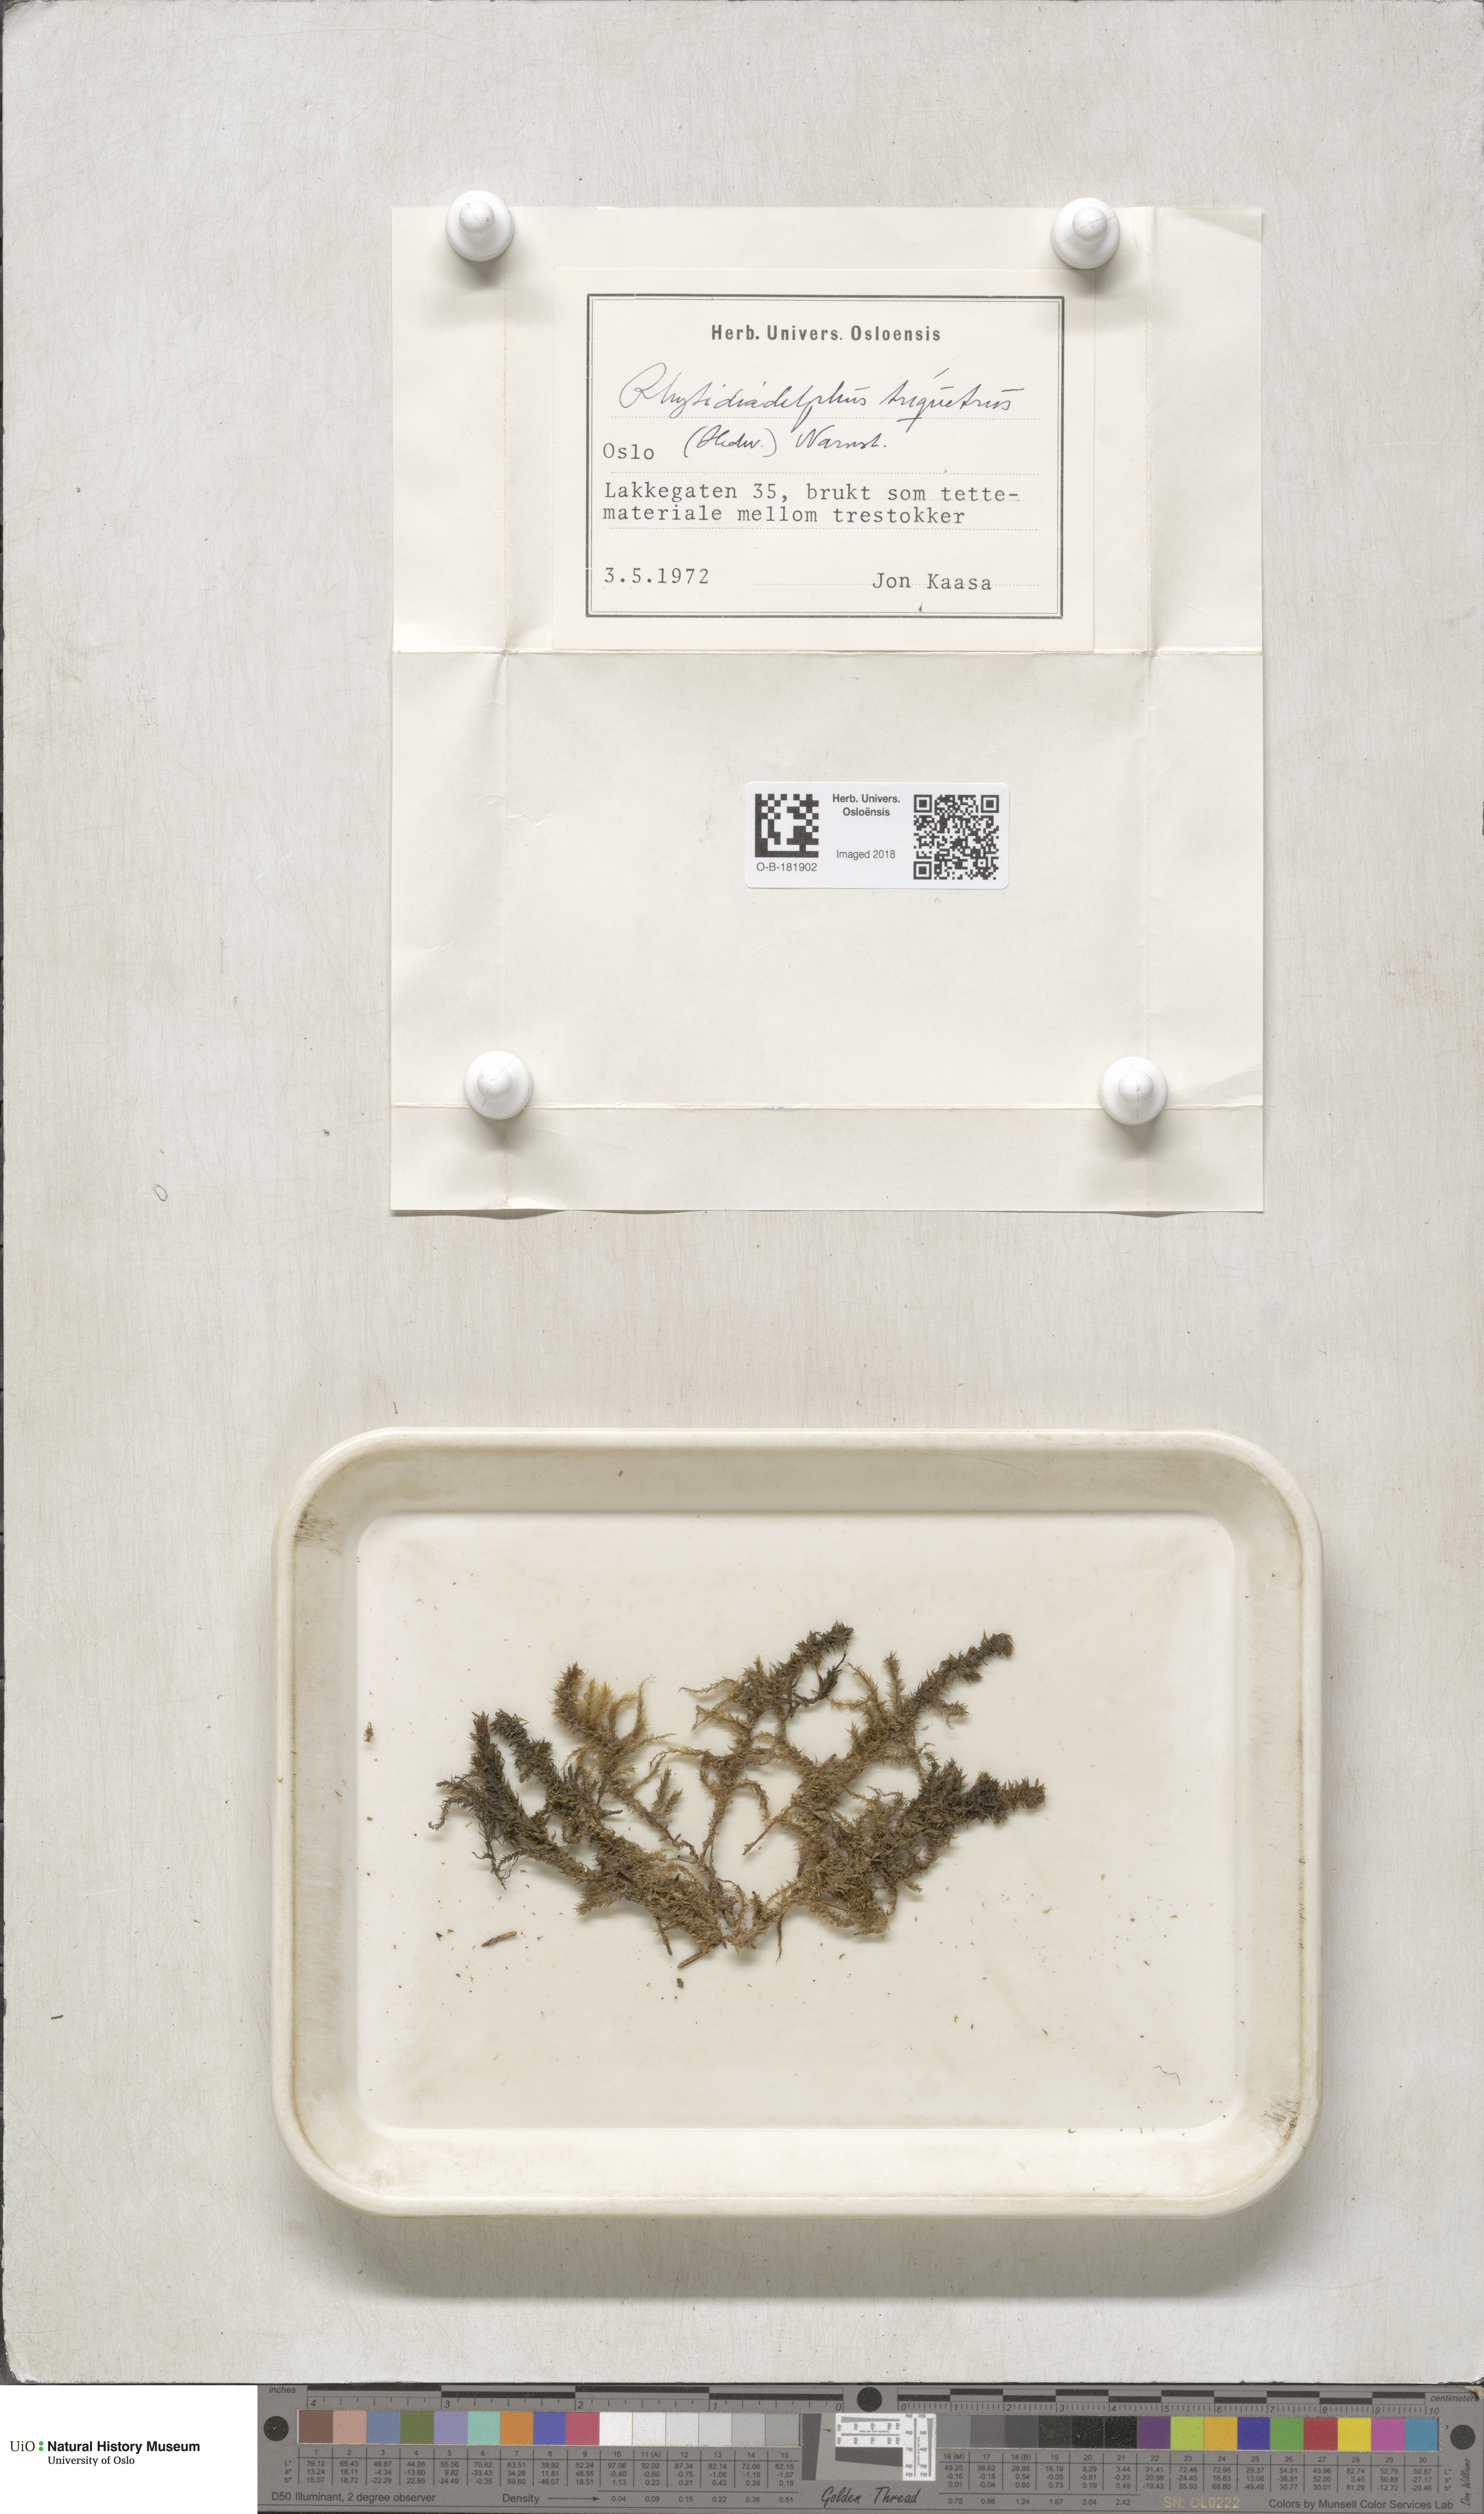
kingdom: Plantae
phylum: Bryophyta
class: Bryopsida
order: Hypnales
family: Hylocomiaceae
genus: Hylocomiadelphus
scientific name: Hylocomiadelphus triquetrus
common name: Rough goose neck moss
